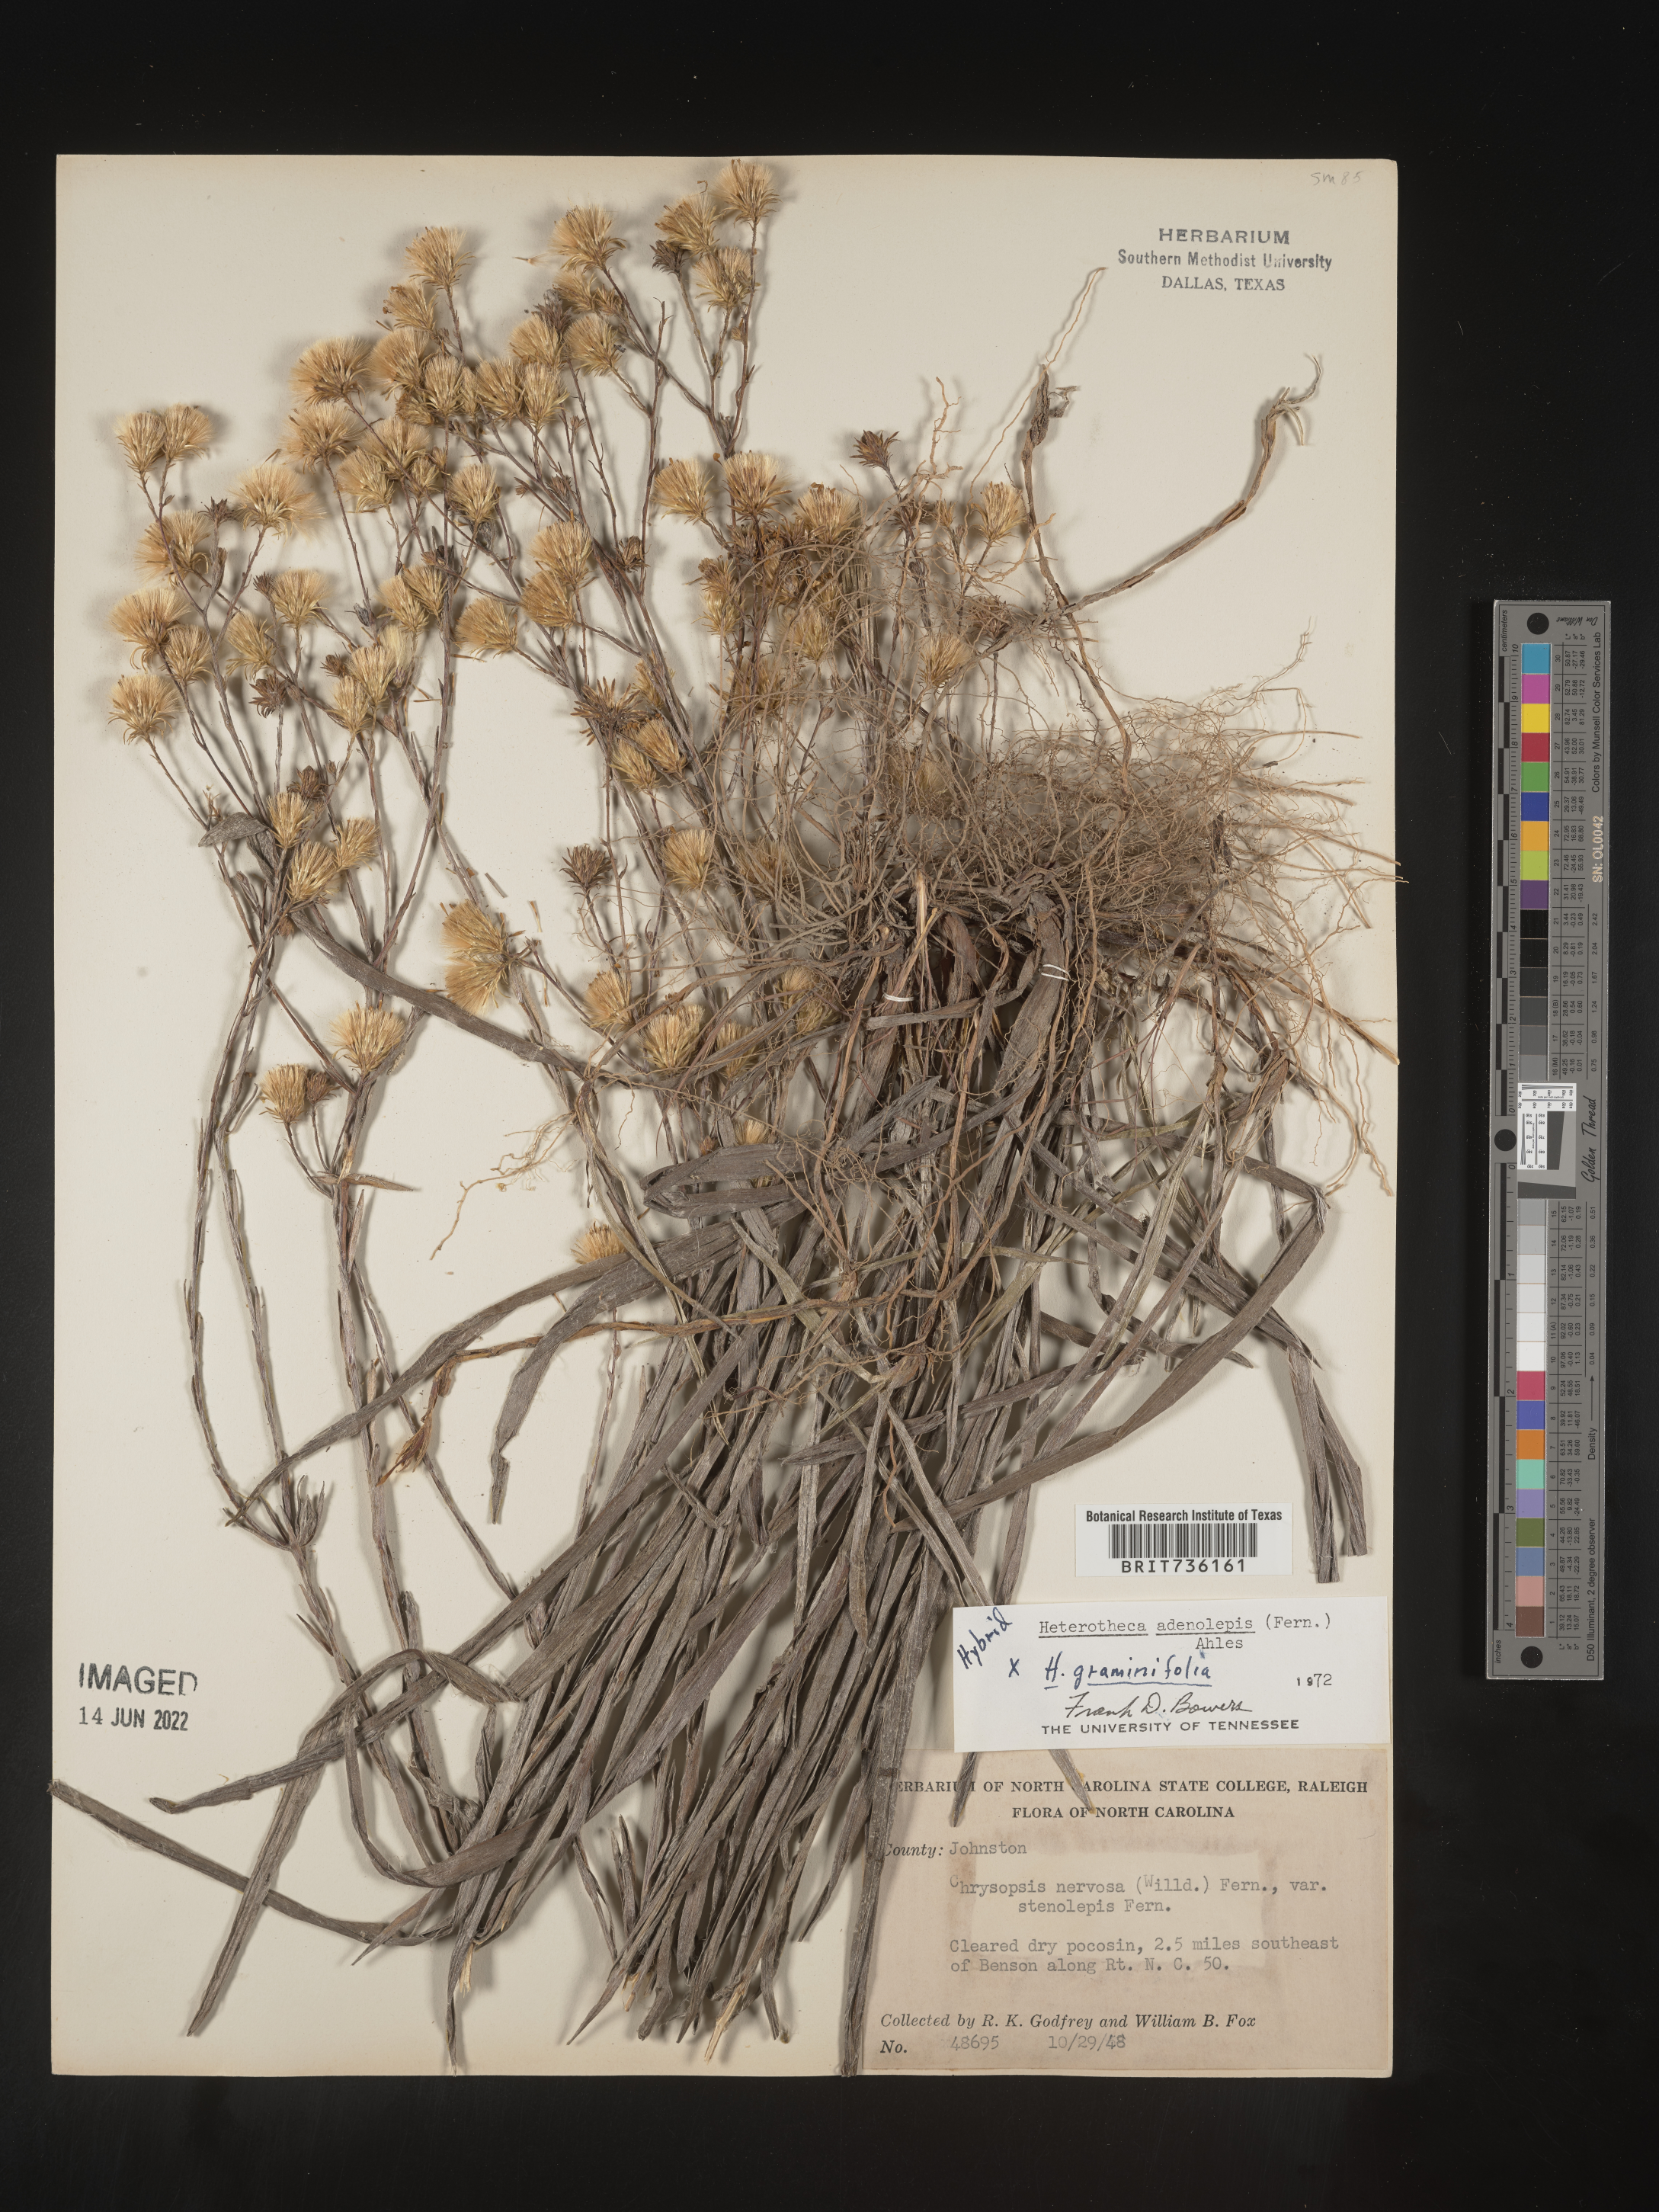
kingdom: Plantae
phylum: Tracheophyta
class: Magnoliopsida
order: Asterales
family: Asteraceae
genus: Pityopsis
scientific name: Pityopsis aspera
